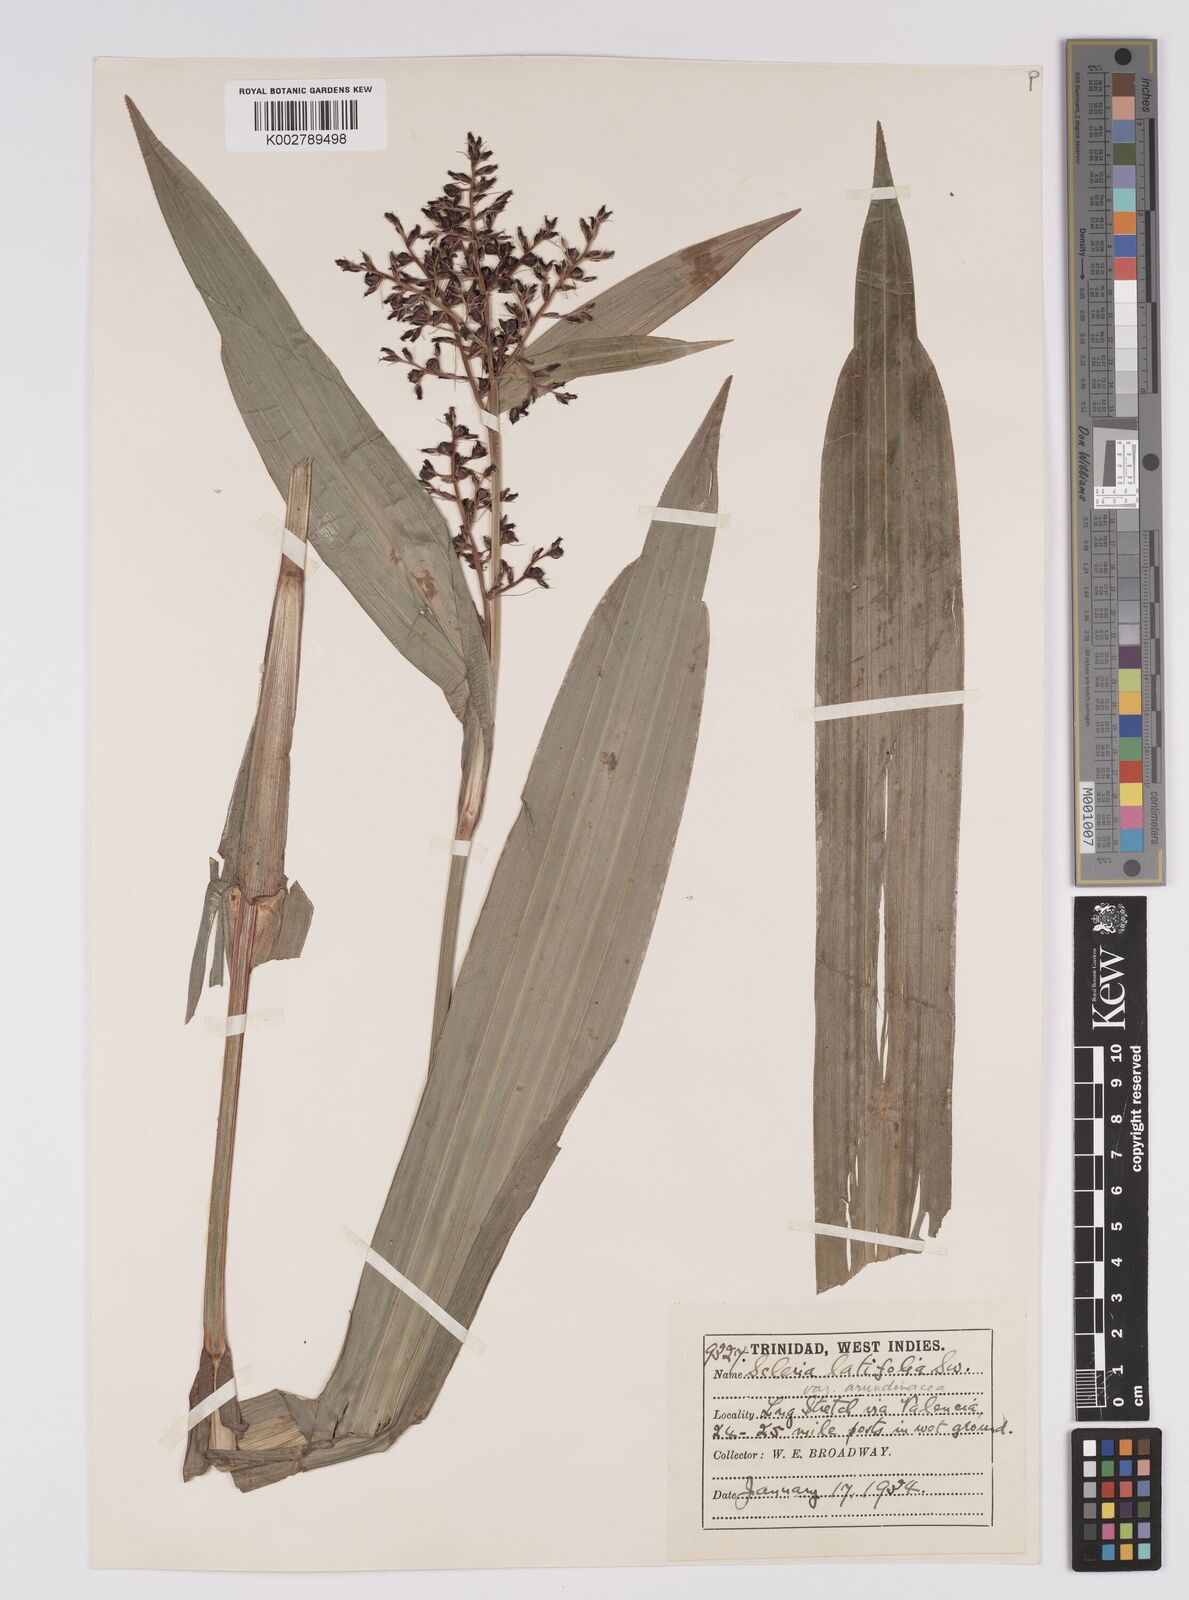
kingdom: Plantae
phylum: Tracheophyta
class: Liliopsida
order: Poales
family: Cyperaceae
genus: Scleria
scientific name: Scleria latifolia
